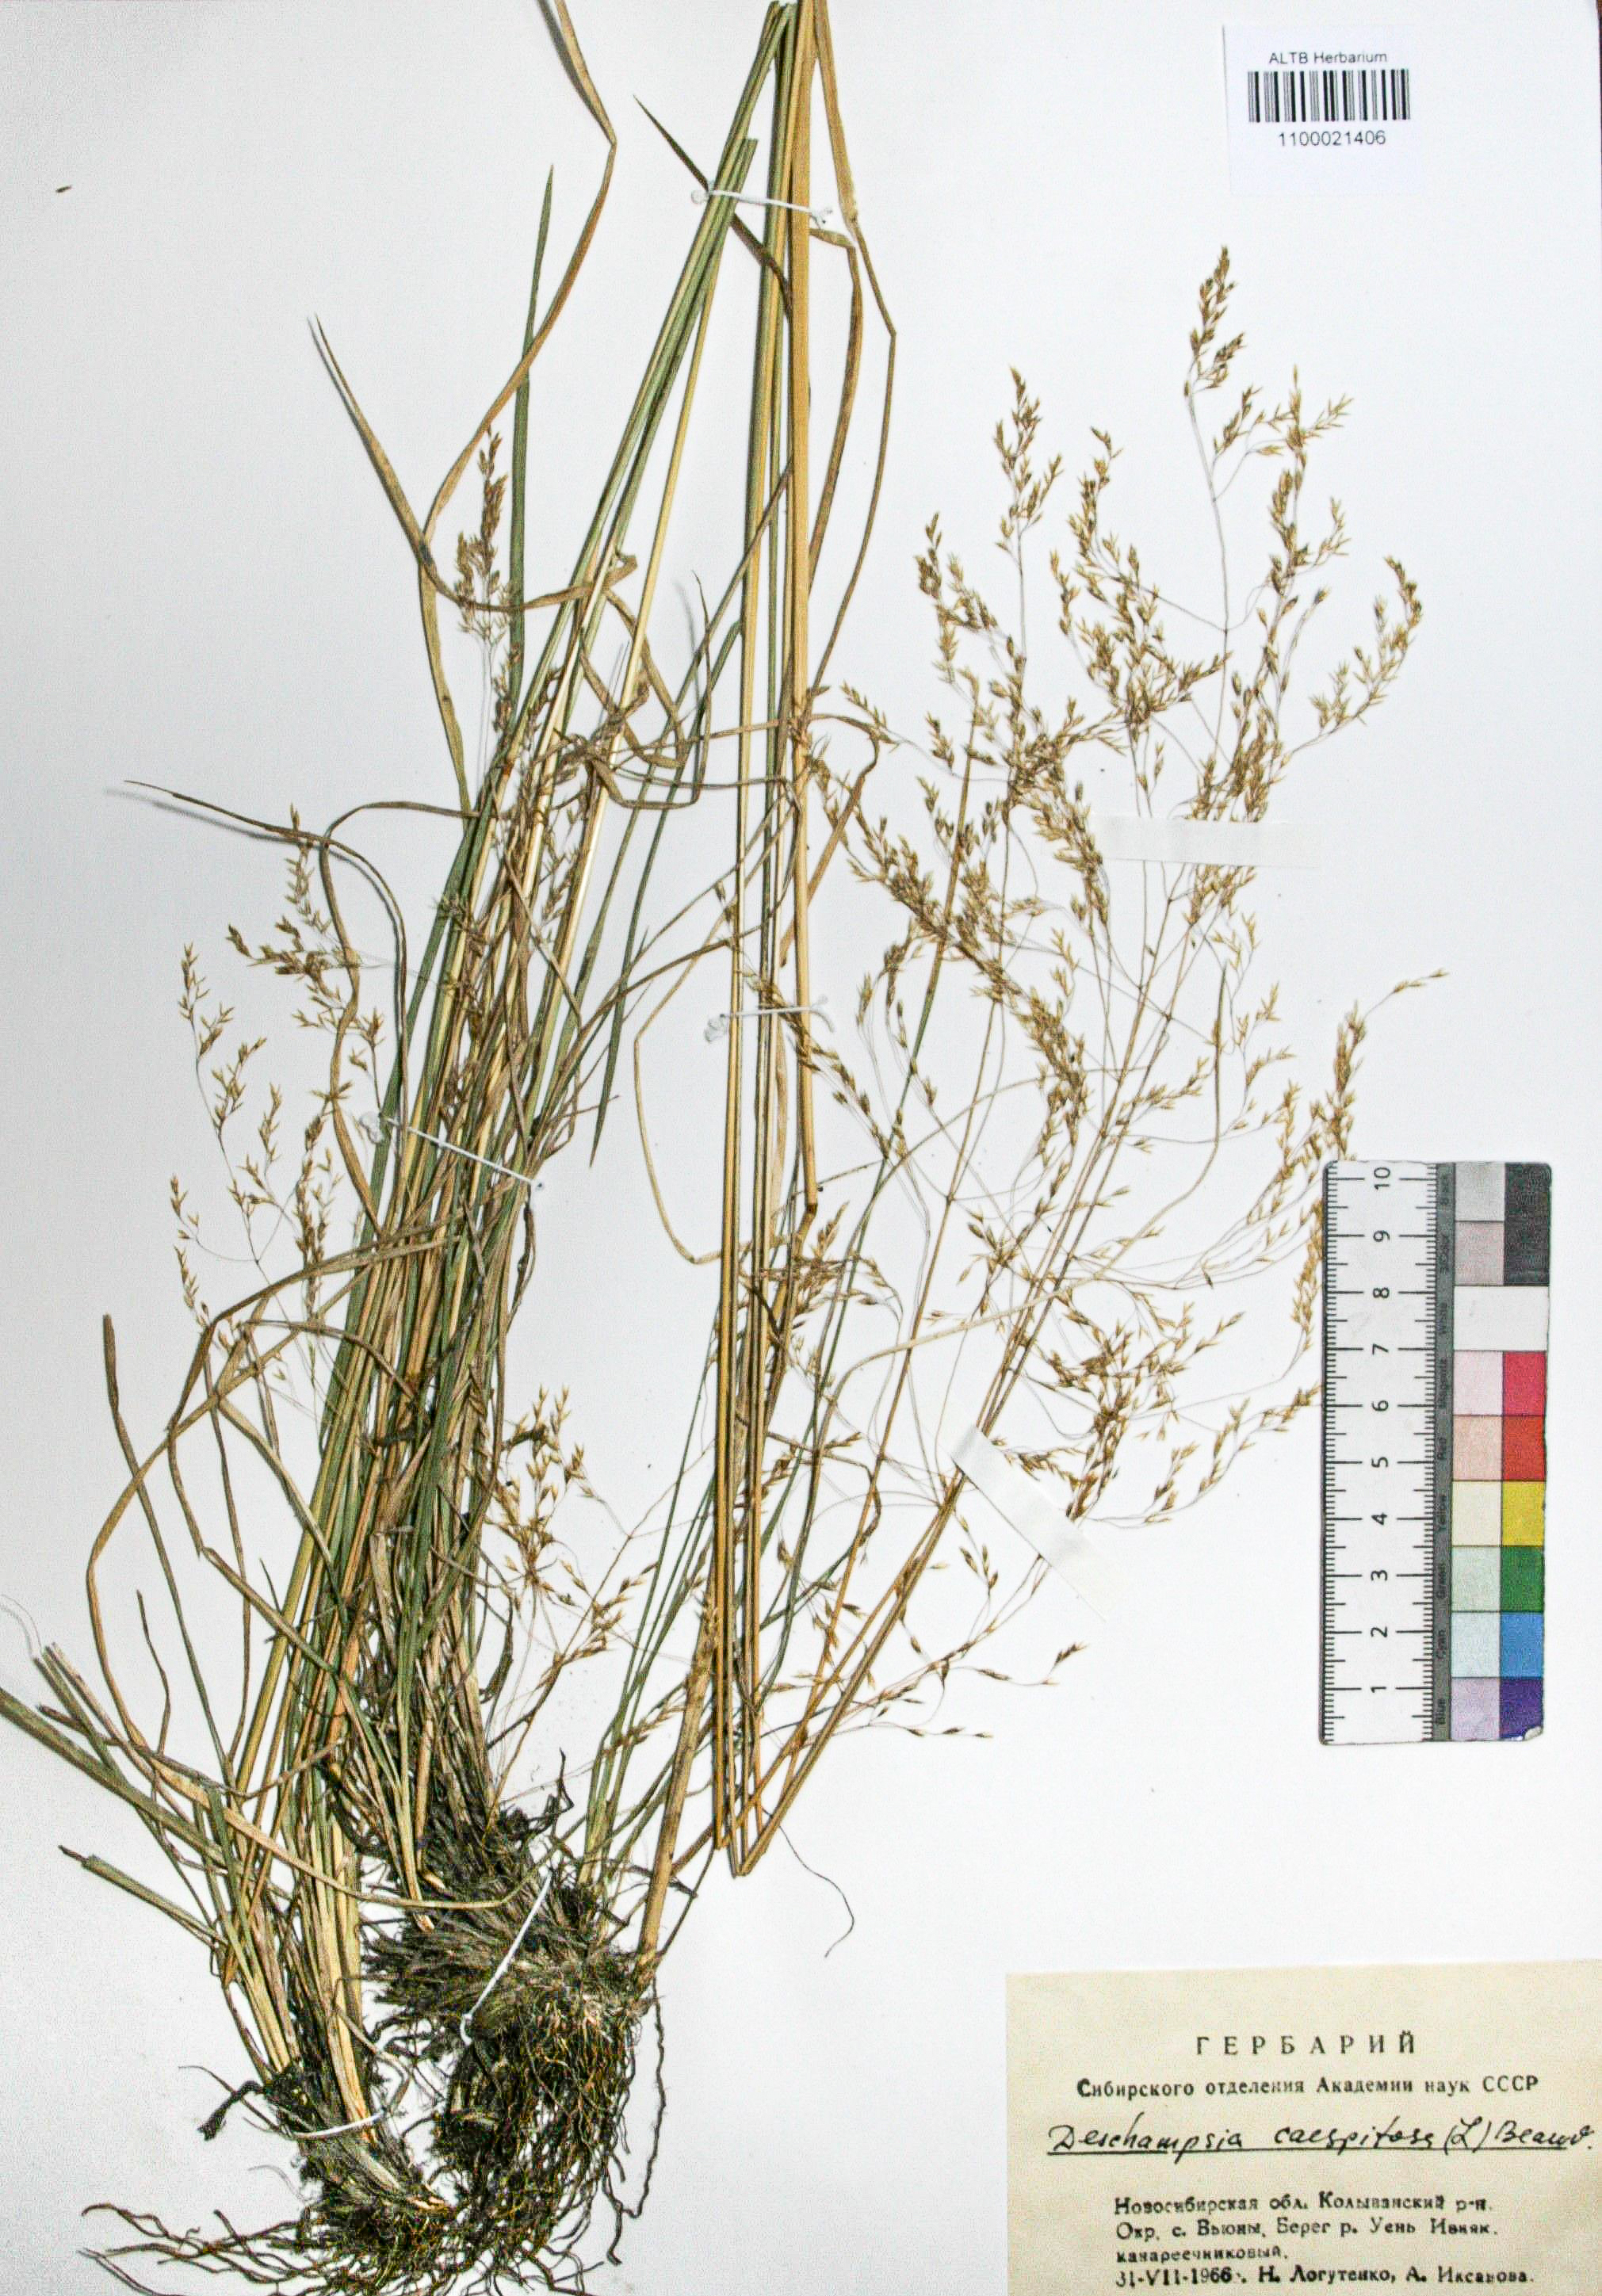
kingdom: Plantae
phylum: Tracheophyta
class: Liliopsida
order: Poales
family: Poaceae
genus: Deschampsia
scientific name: Deschampsia cespitosa
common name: Tufted hair-grass
